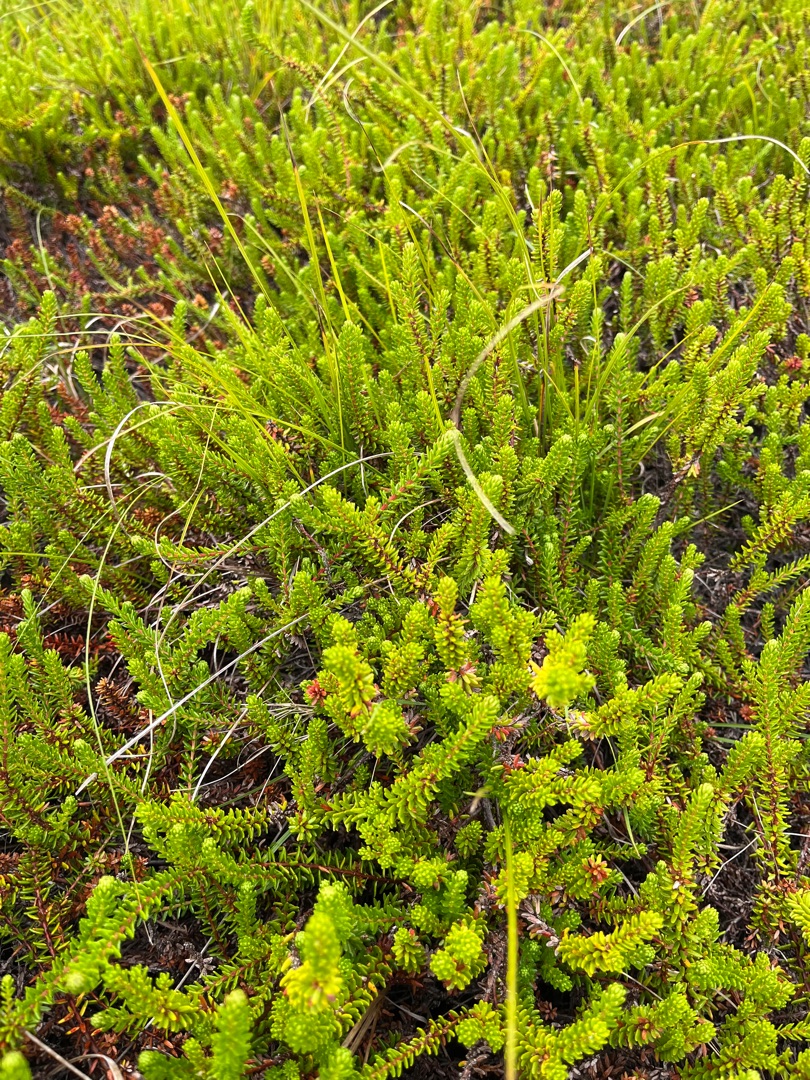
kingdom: Plantae
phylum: Tracheophyta
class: Magnoliopsida
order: Ericales
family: Ericaceae
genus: Empetrum
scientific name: Empetrum nigrum
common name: Revling
